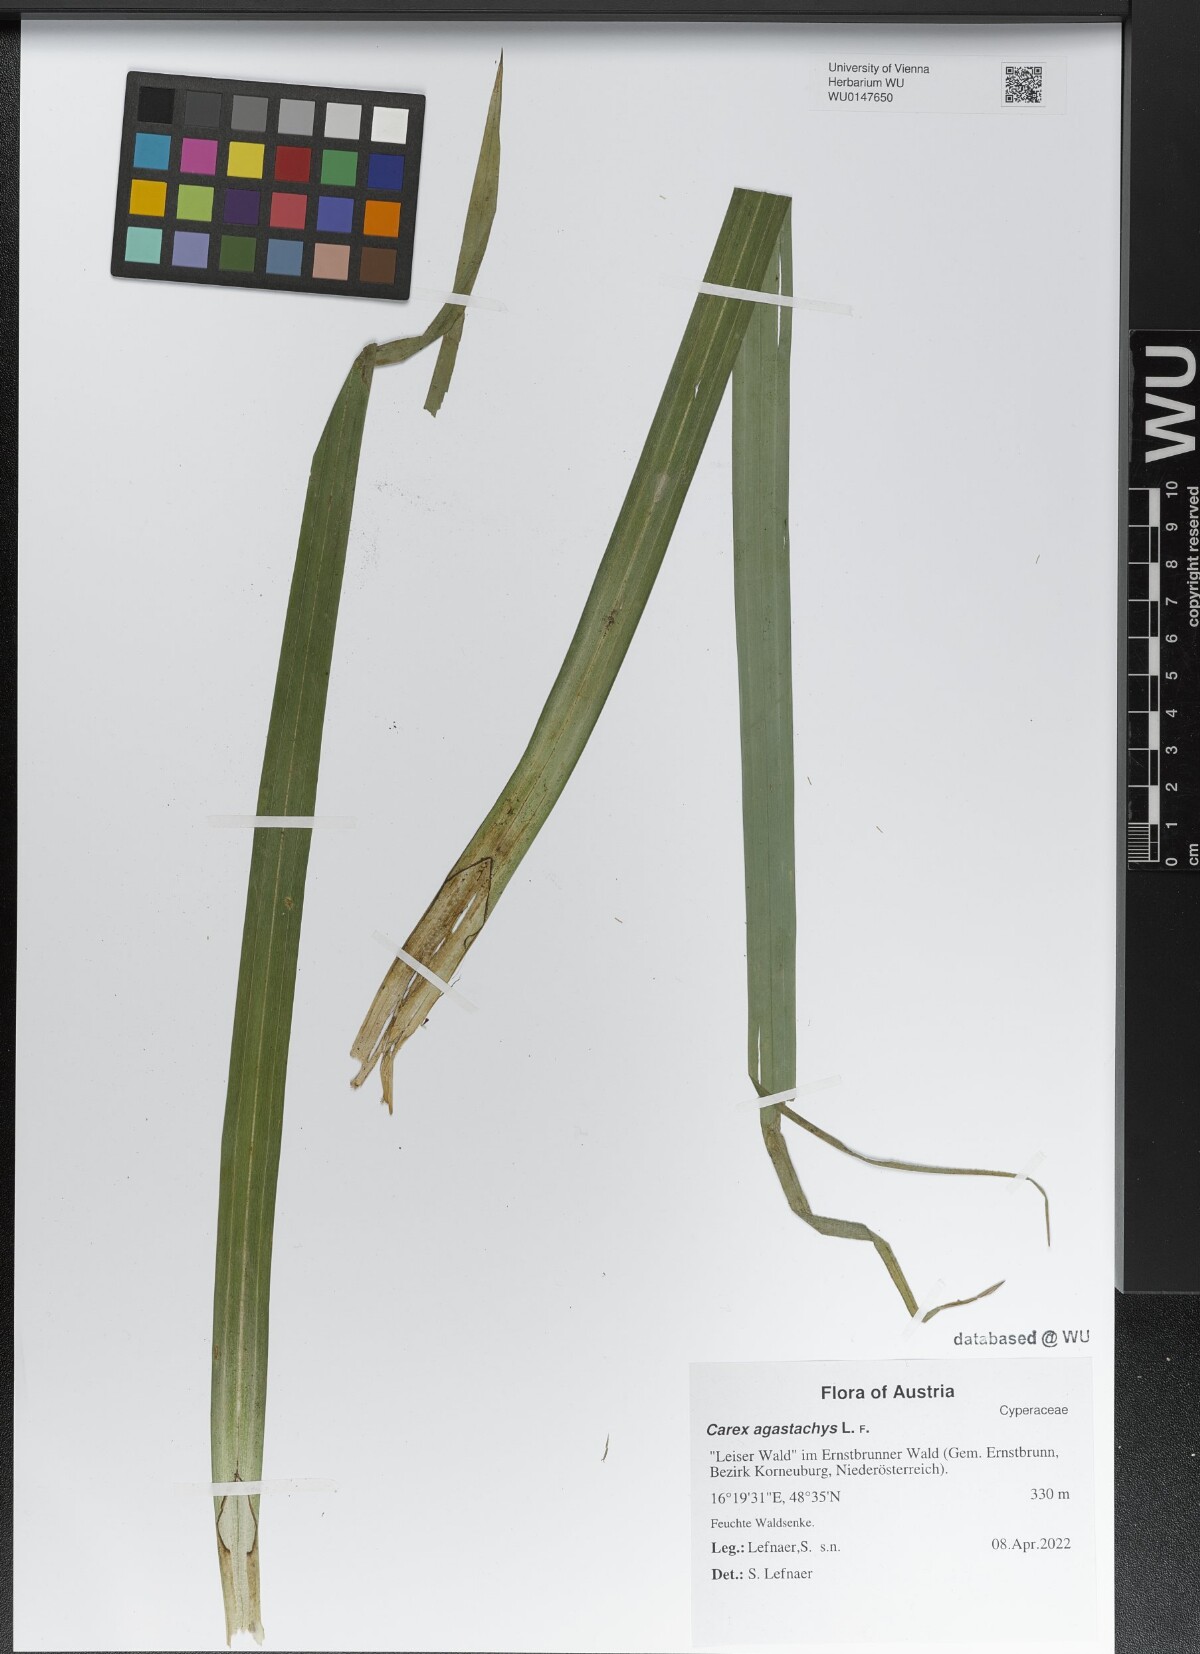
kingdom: Plantae
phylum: Tracheophyta
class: Liliopsida
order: Poales
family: Cyperaceae
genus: Carex
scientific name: Carex agastachys
